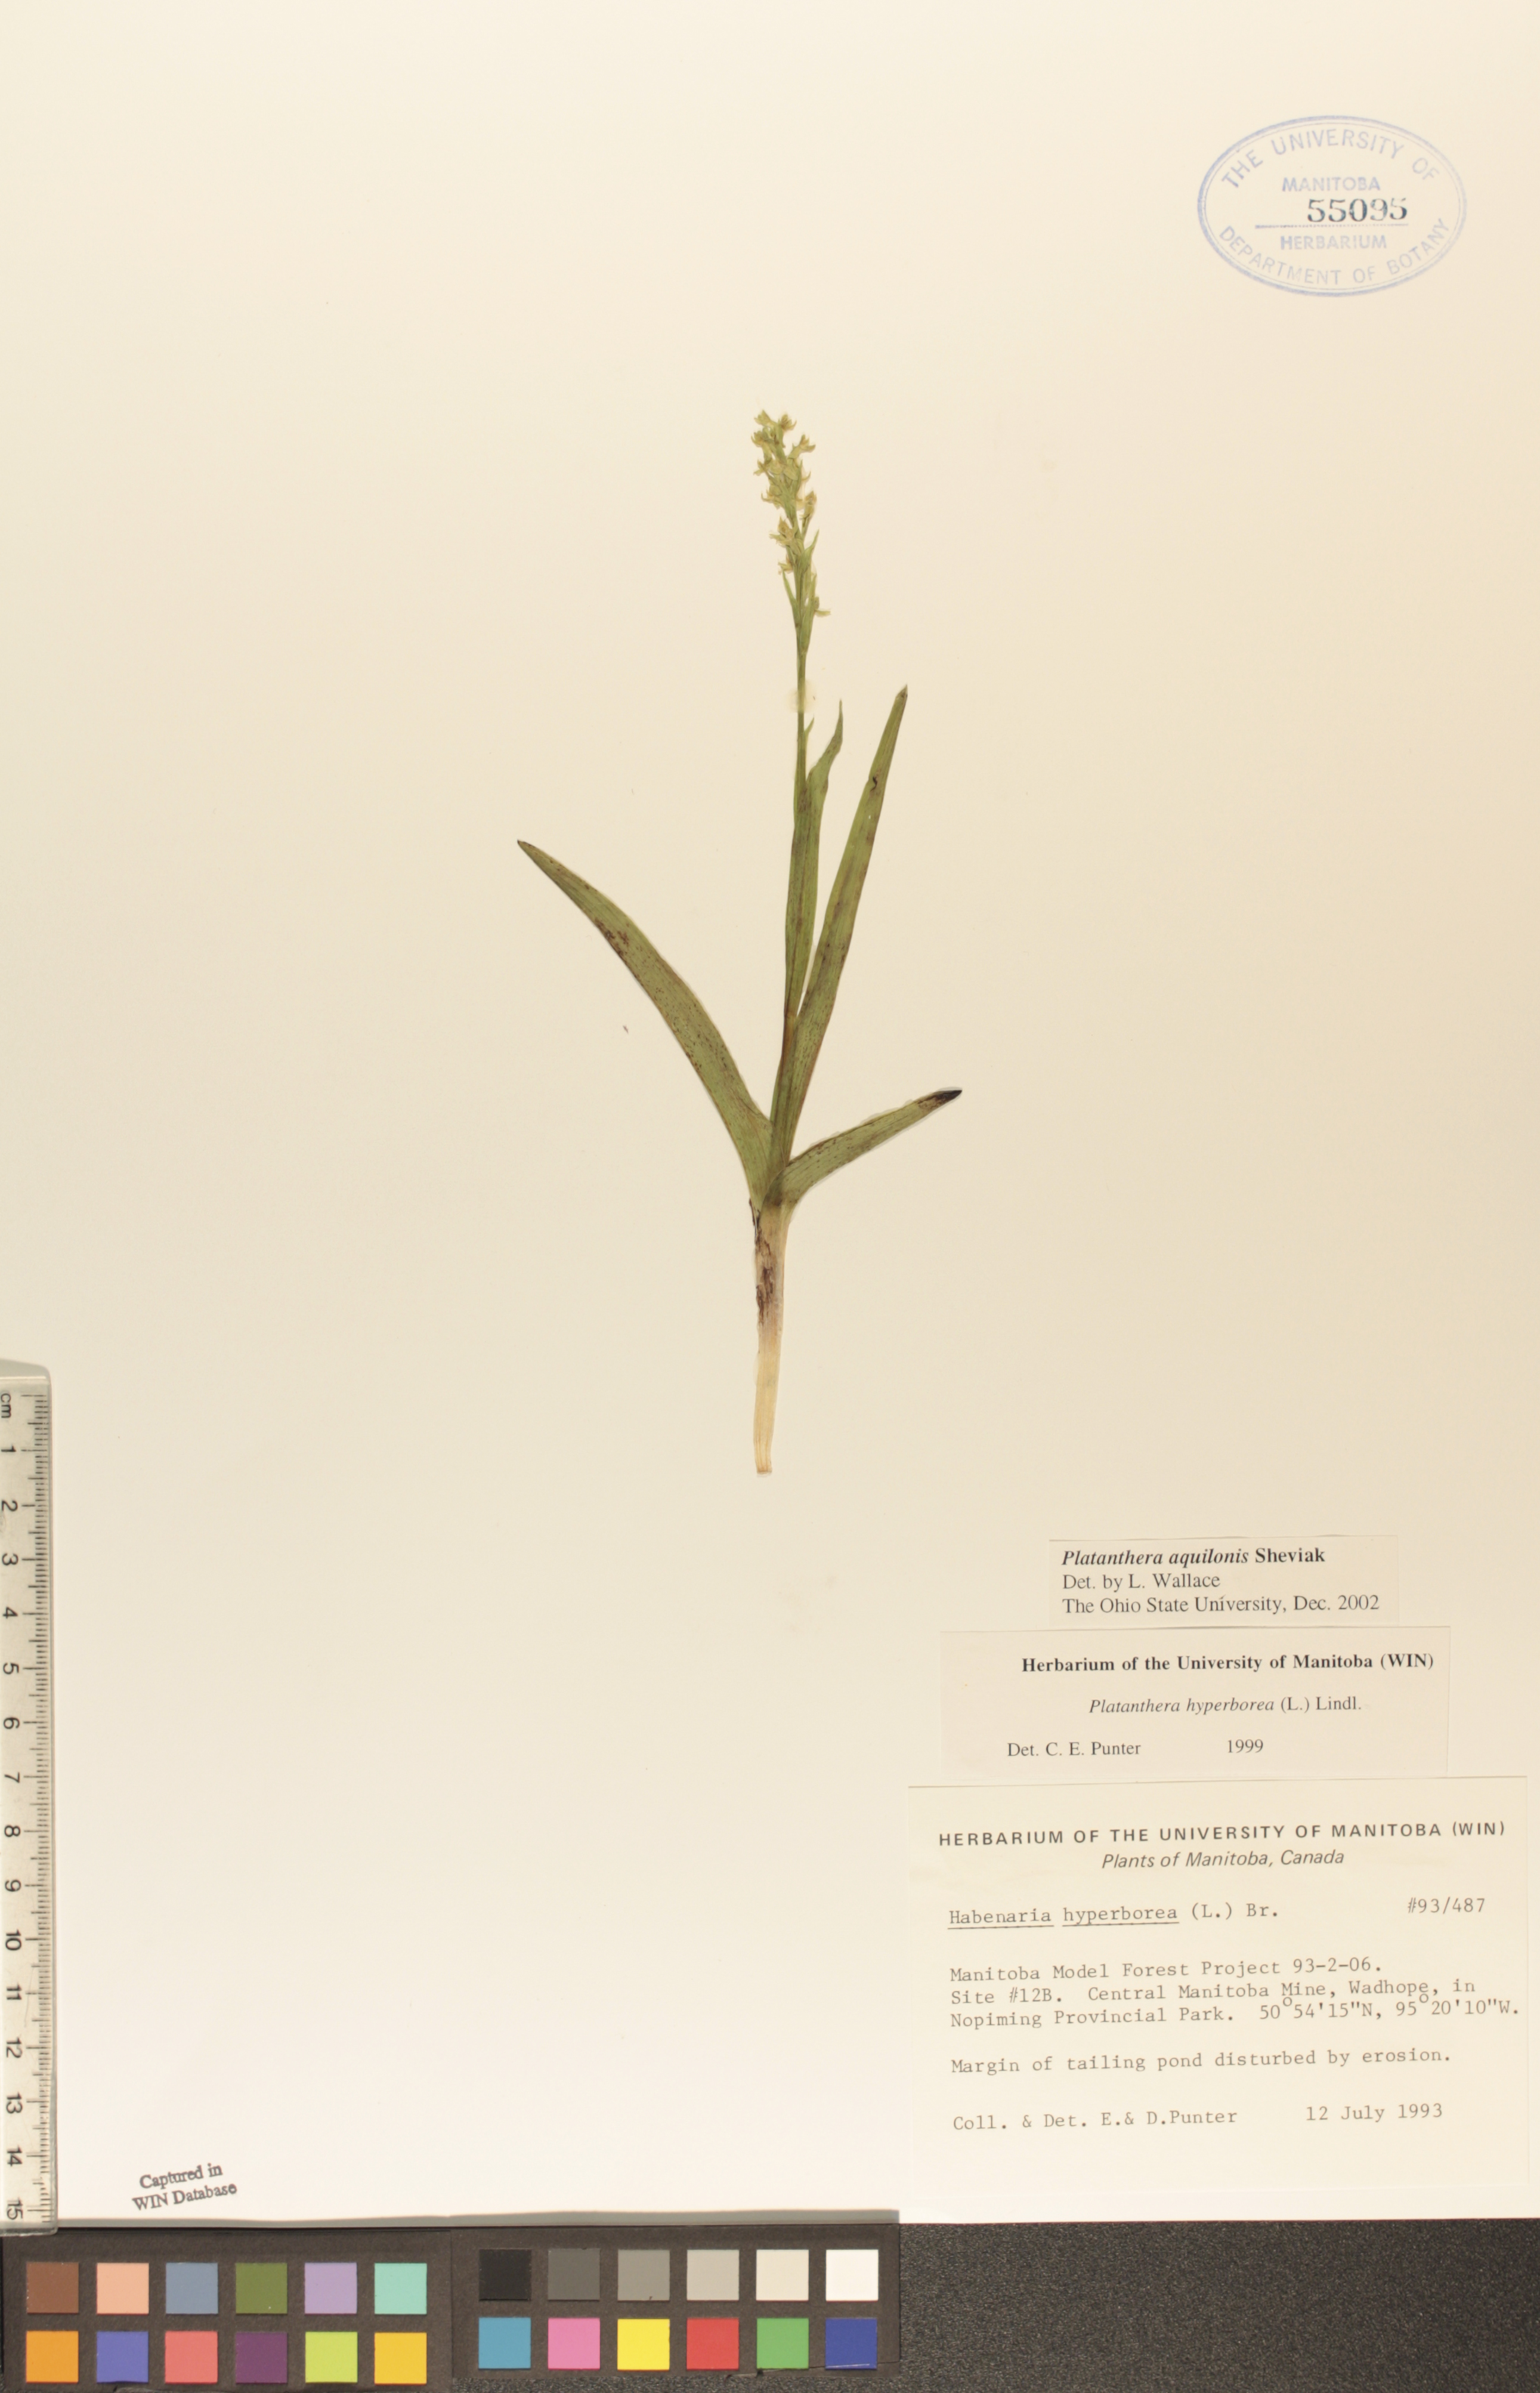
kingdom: Plantae
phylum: Tracheophyta
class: Liliopsida
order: Asparagales
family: Orchidaceae
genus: Platanthera
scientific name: Platanthera aquilonis
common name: Northern green orchid
